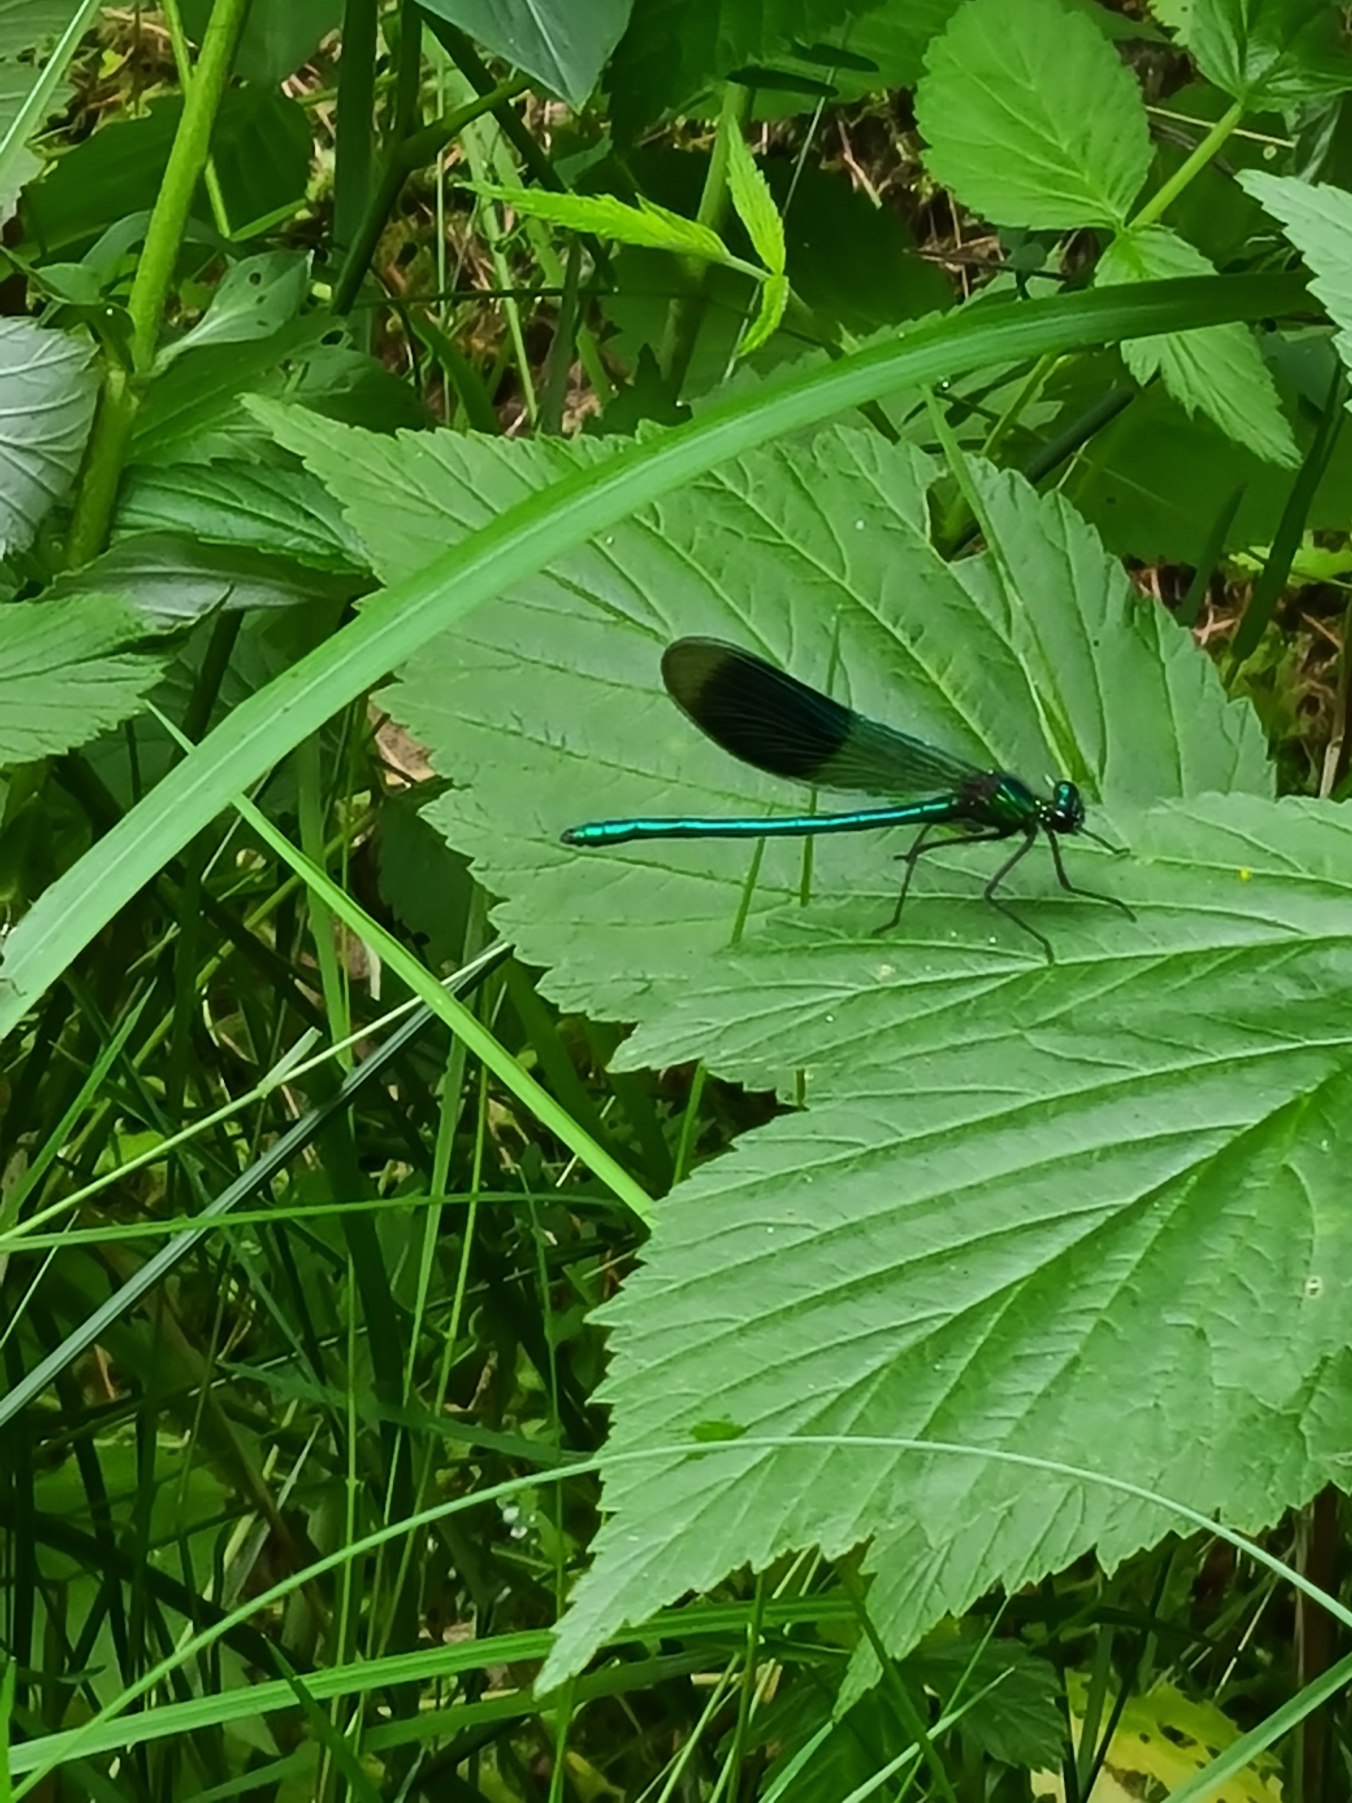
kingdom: Animalia
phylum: Arthropoda
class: Insecta
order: Odonata
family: Calopterygidae
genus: Calopteryx
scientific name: Calopteryx splendens
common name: Blåbåndet pragtvandnymfe
